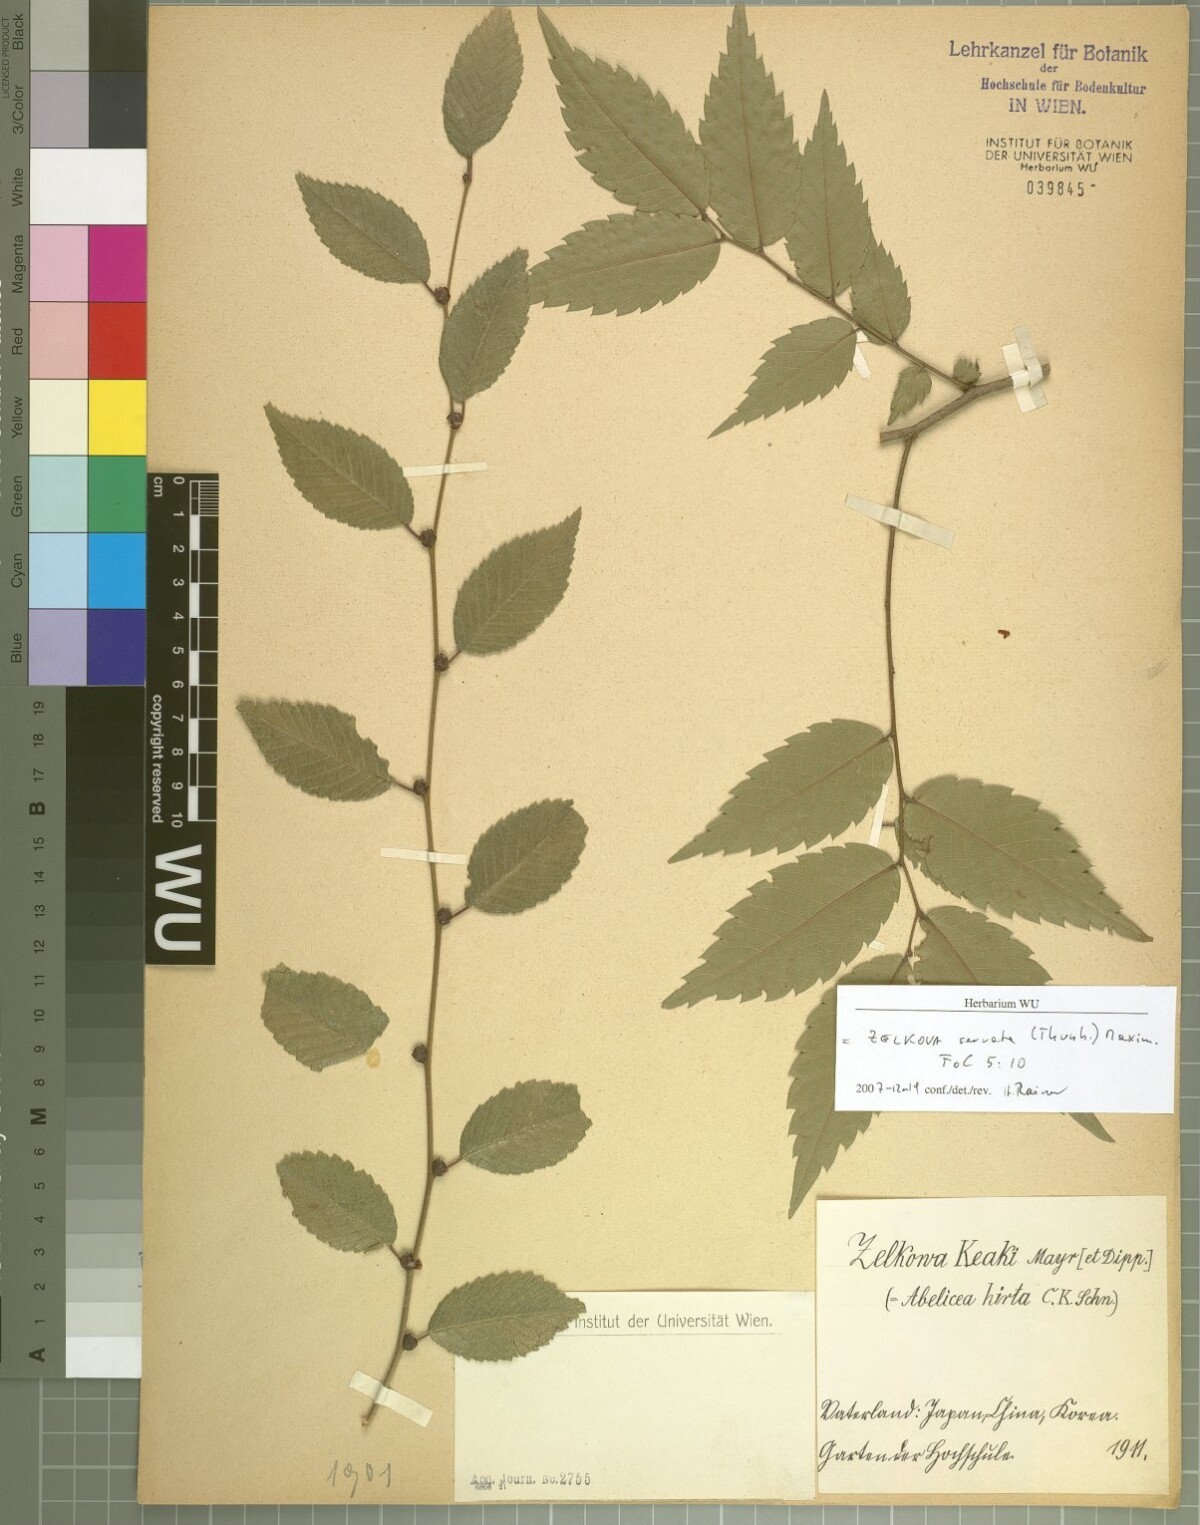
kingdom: Plantae
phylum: Tracheophyta
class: Magnoliopsida
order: Rosales
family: Ulmaceae
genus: Zelkova
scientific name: Zelkova serrata
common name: Japanese zelkova
